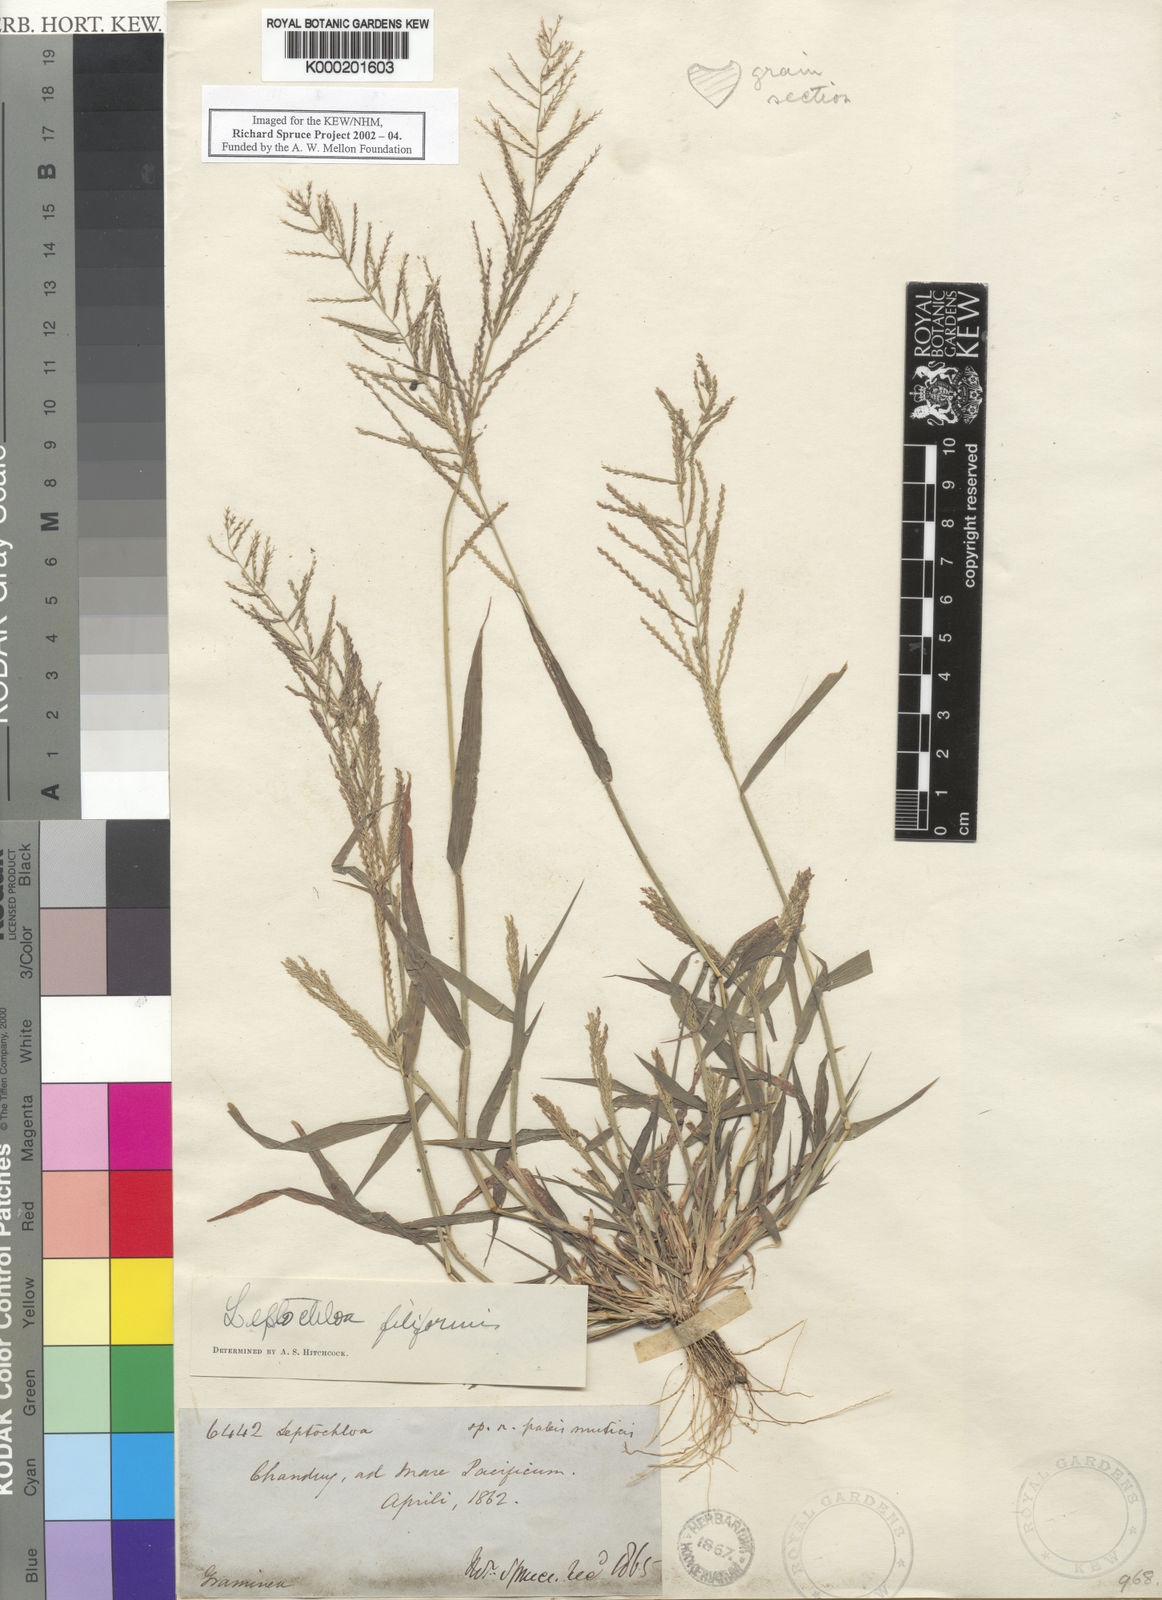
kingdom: Plantae
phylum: Tracheophyta
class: Liliopsida
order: Poales
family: Poaceae
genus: Leptochloa
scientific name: Leptochloa mucronata
